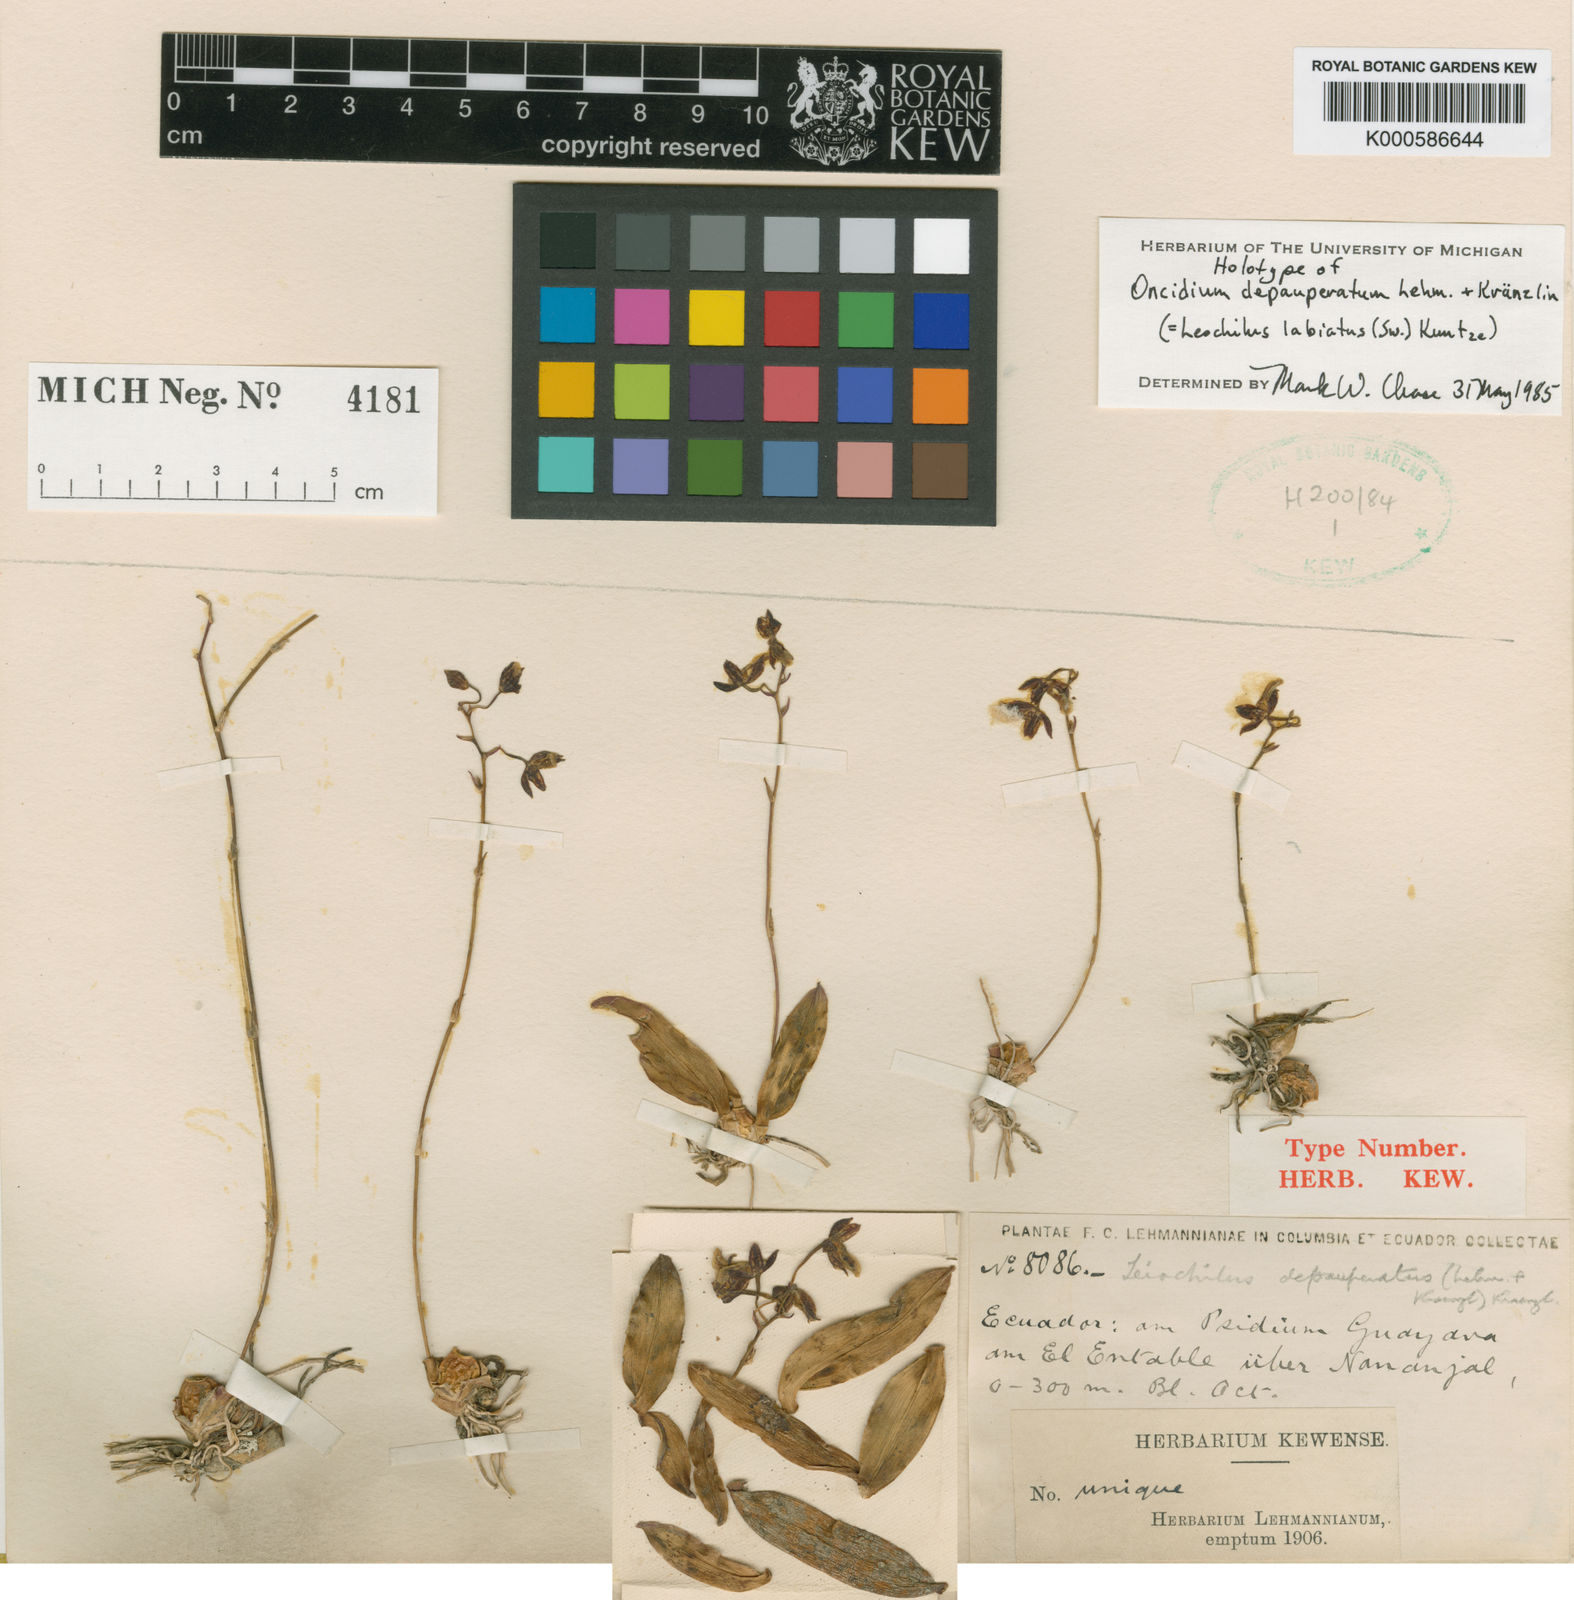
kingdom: Plantae
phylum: Tracheophyta
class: Liliopsida
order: Asparagales
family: Orchidaceae
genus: Leochilus
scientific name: Leochilus labiatus
